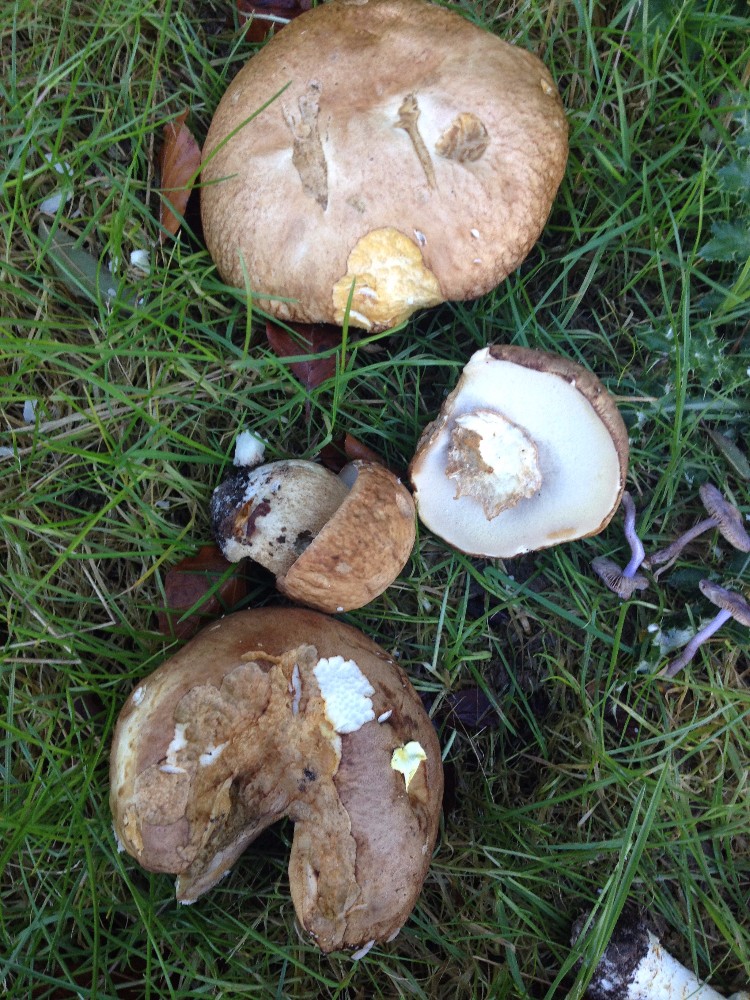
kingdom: Fungi
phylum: Basidiomycota
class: Agaricomycetes
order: Boletales
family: Boletaceae
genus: Boletus
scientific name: Boletus reticulatus
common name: sommer-rørhat
